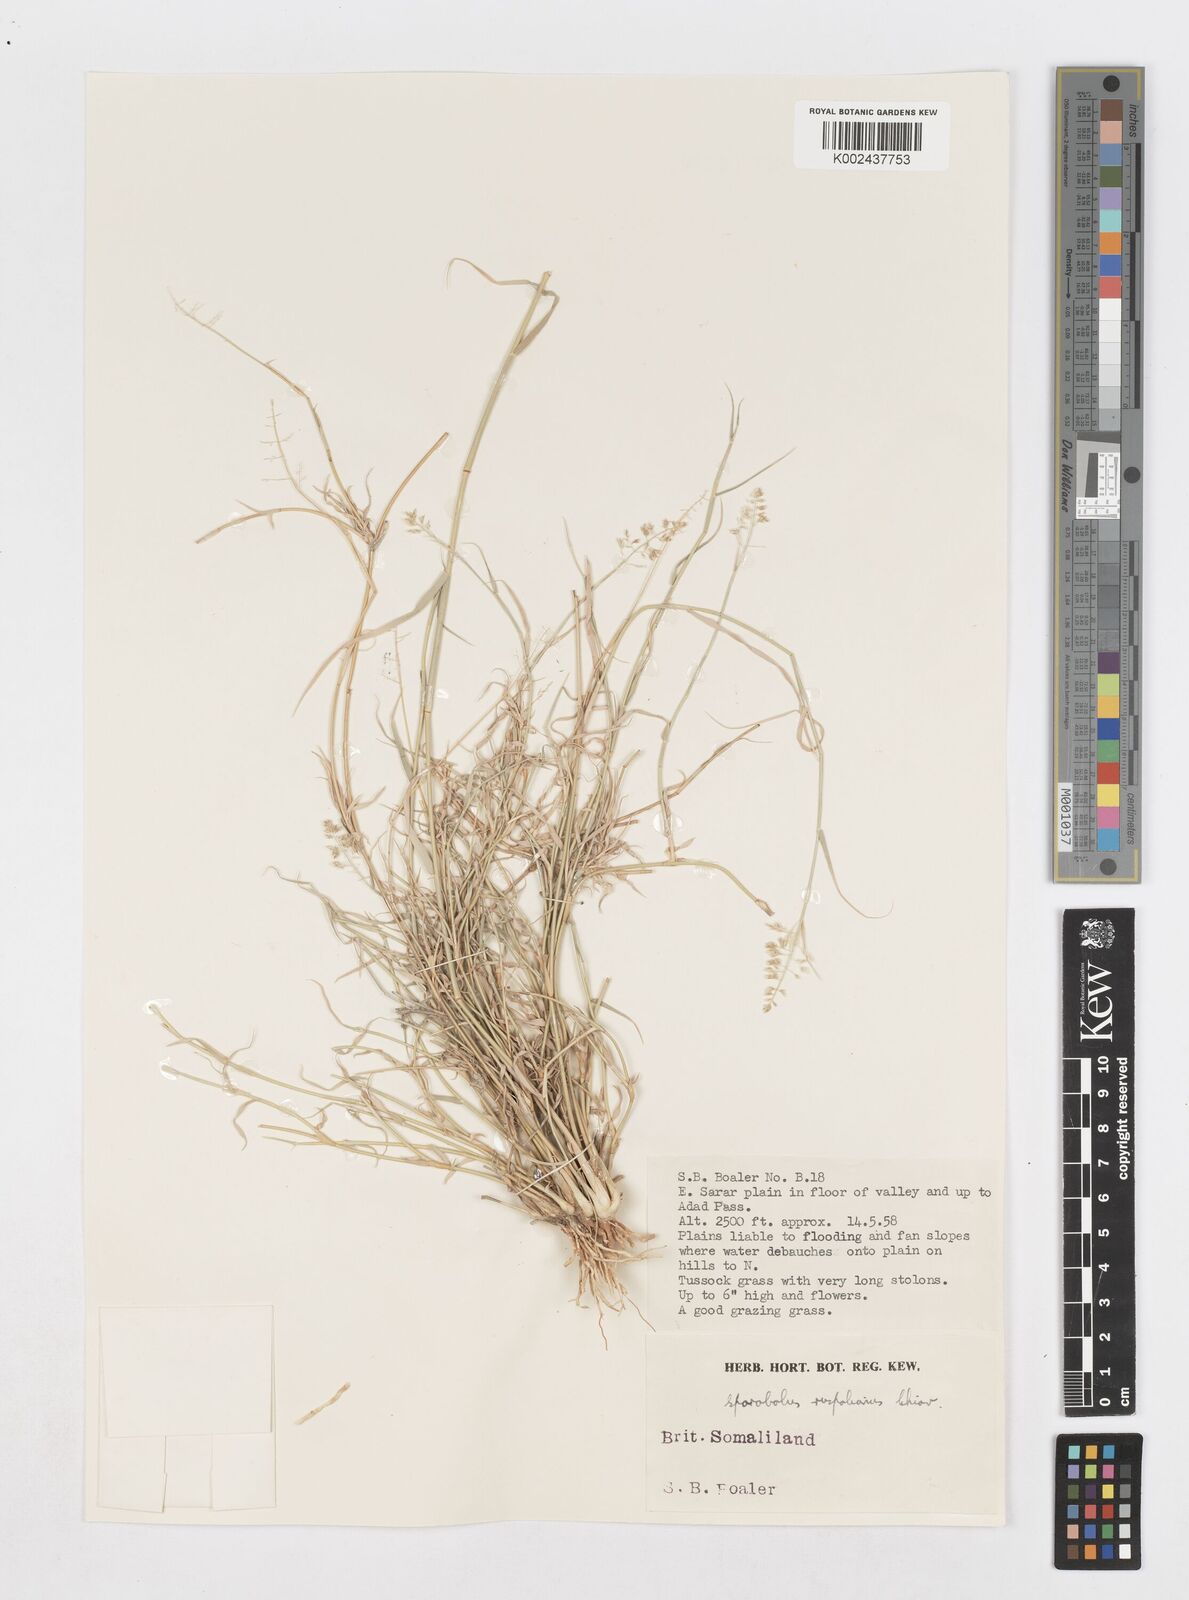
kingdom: Plantae
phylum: Tracheophyta
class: Liliopsida
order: Poales
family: Poaceae
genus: Sporobolus
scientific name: Sporobolus ruspolianus
